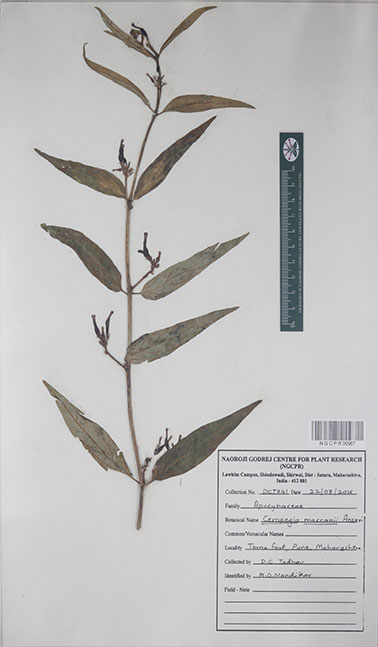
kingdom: Plantae
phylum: Tracheophyta
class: Magnoliopsida
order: Gentianales
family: Apocynaceae
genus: Ceropegia
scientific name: Ceropegia lawii
